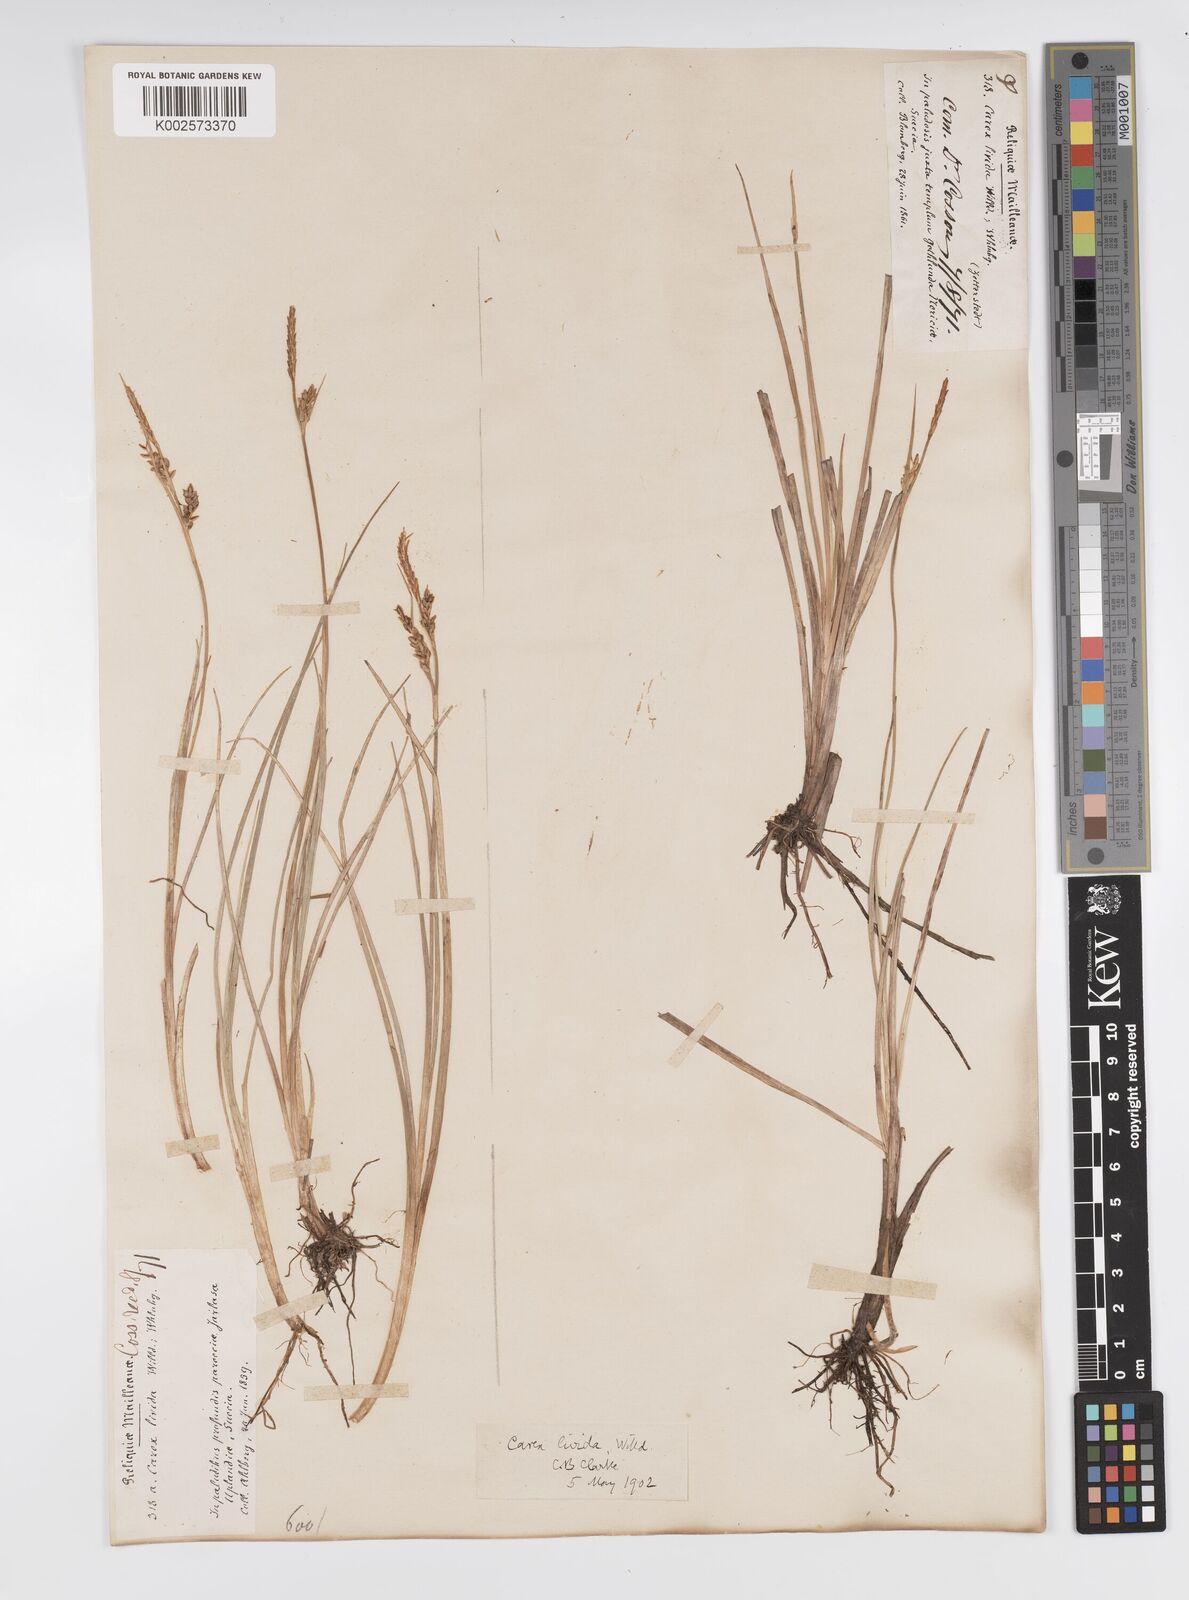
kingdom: Plantae
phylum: Tracheophyta
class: Liliopsida
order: Poales
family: Cyperaceae
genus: Carex
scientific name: Carex livida
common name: Livid sedge
